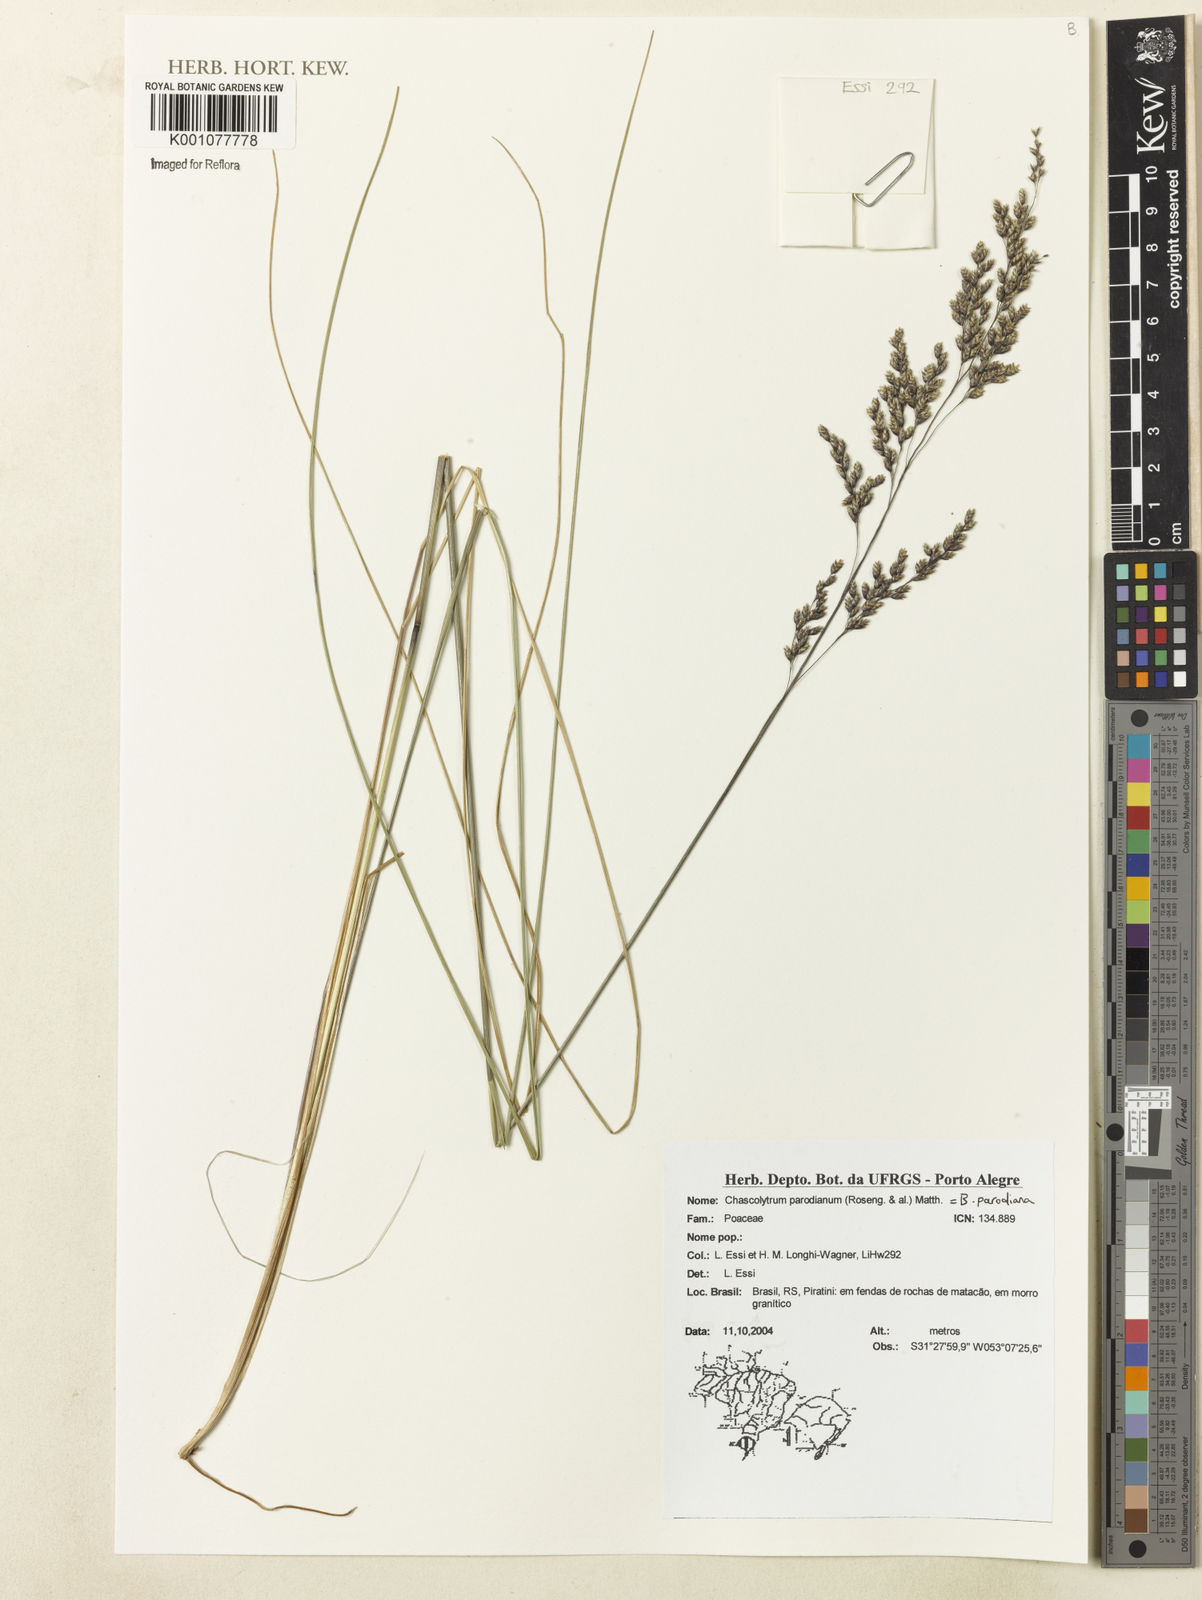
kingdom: Plantae
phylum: Tracheophyta
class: Liliopsida
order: Poales
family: Poaceae
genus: Chascolytrum
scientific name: Chascolytrum parodianum
